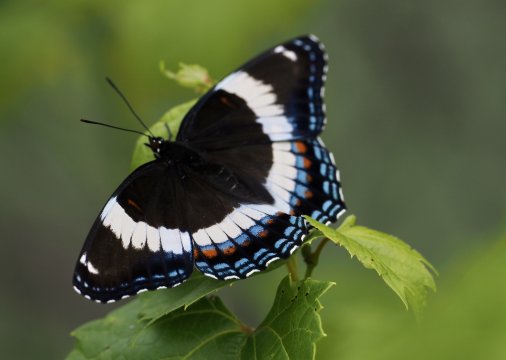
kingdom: Animalia
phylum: Arthropoda
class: Insecta
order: Lepidoptera
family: Nymphalidae
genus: Limenitis
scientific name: Limenitis arthemis
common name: Red-spotted Admiral
